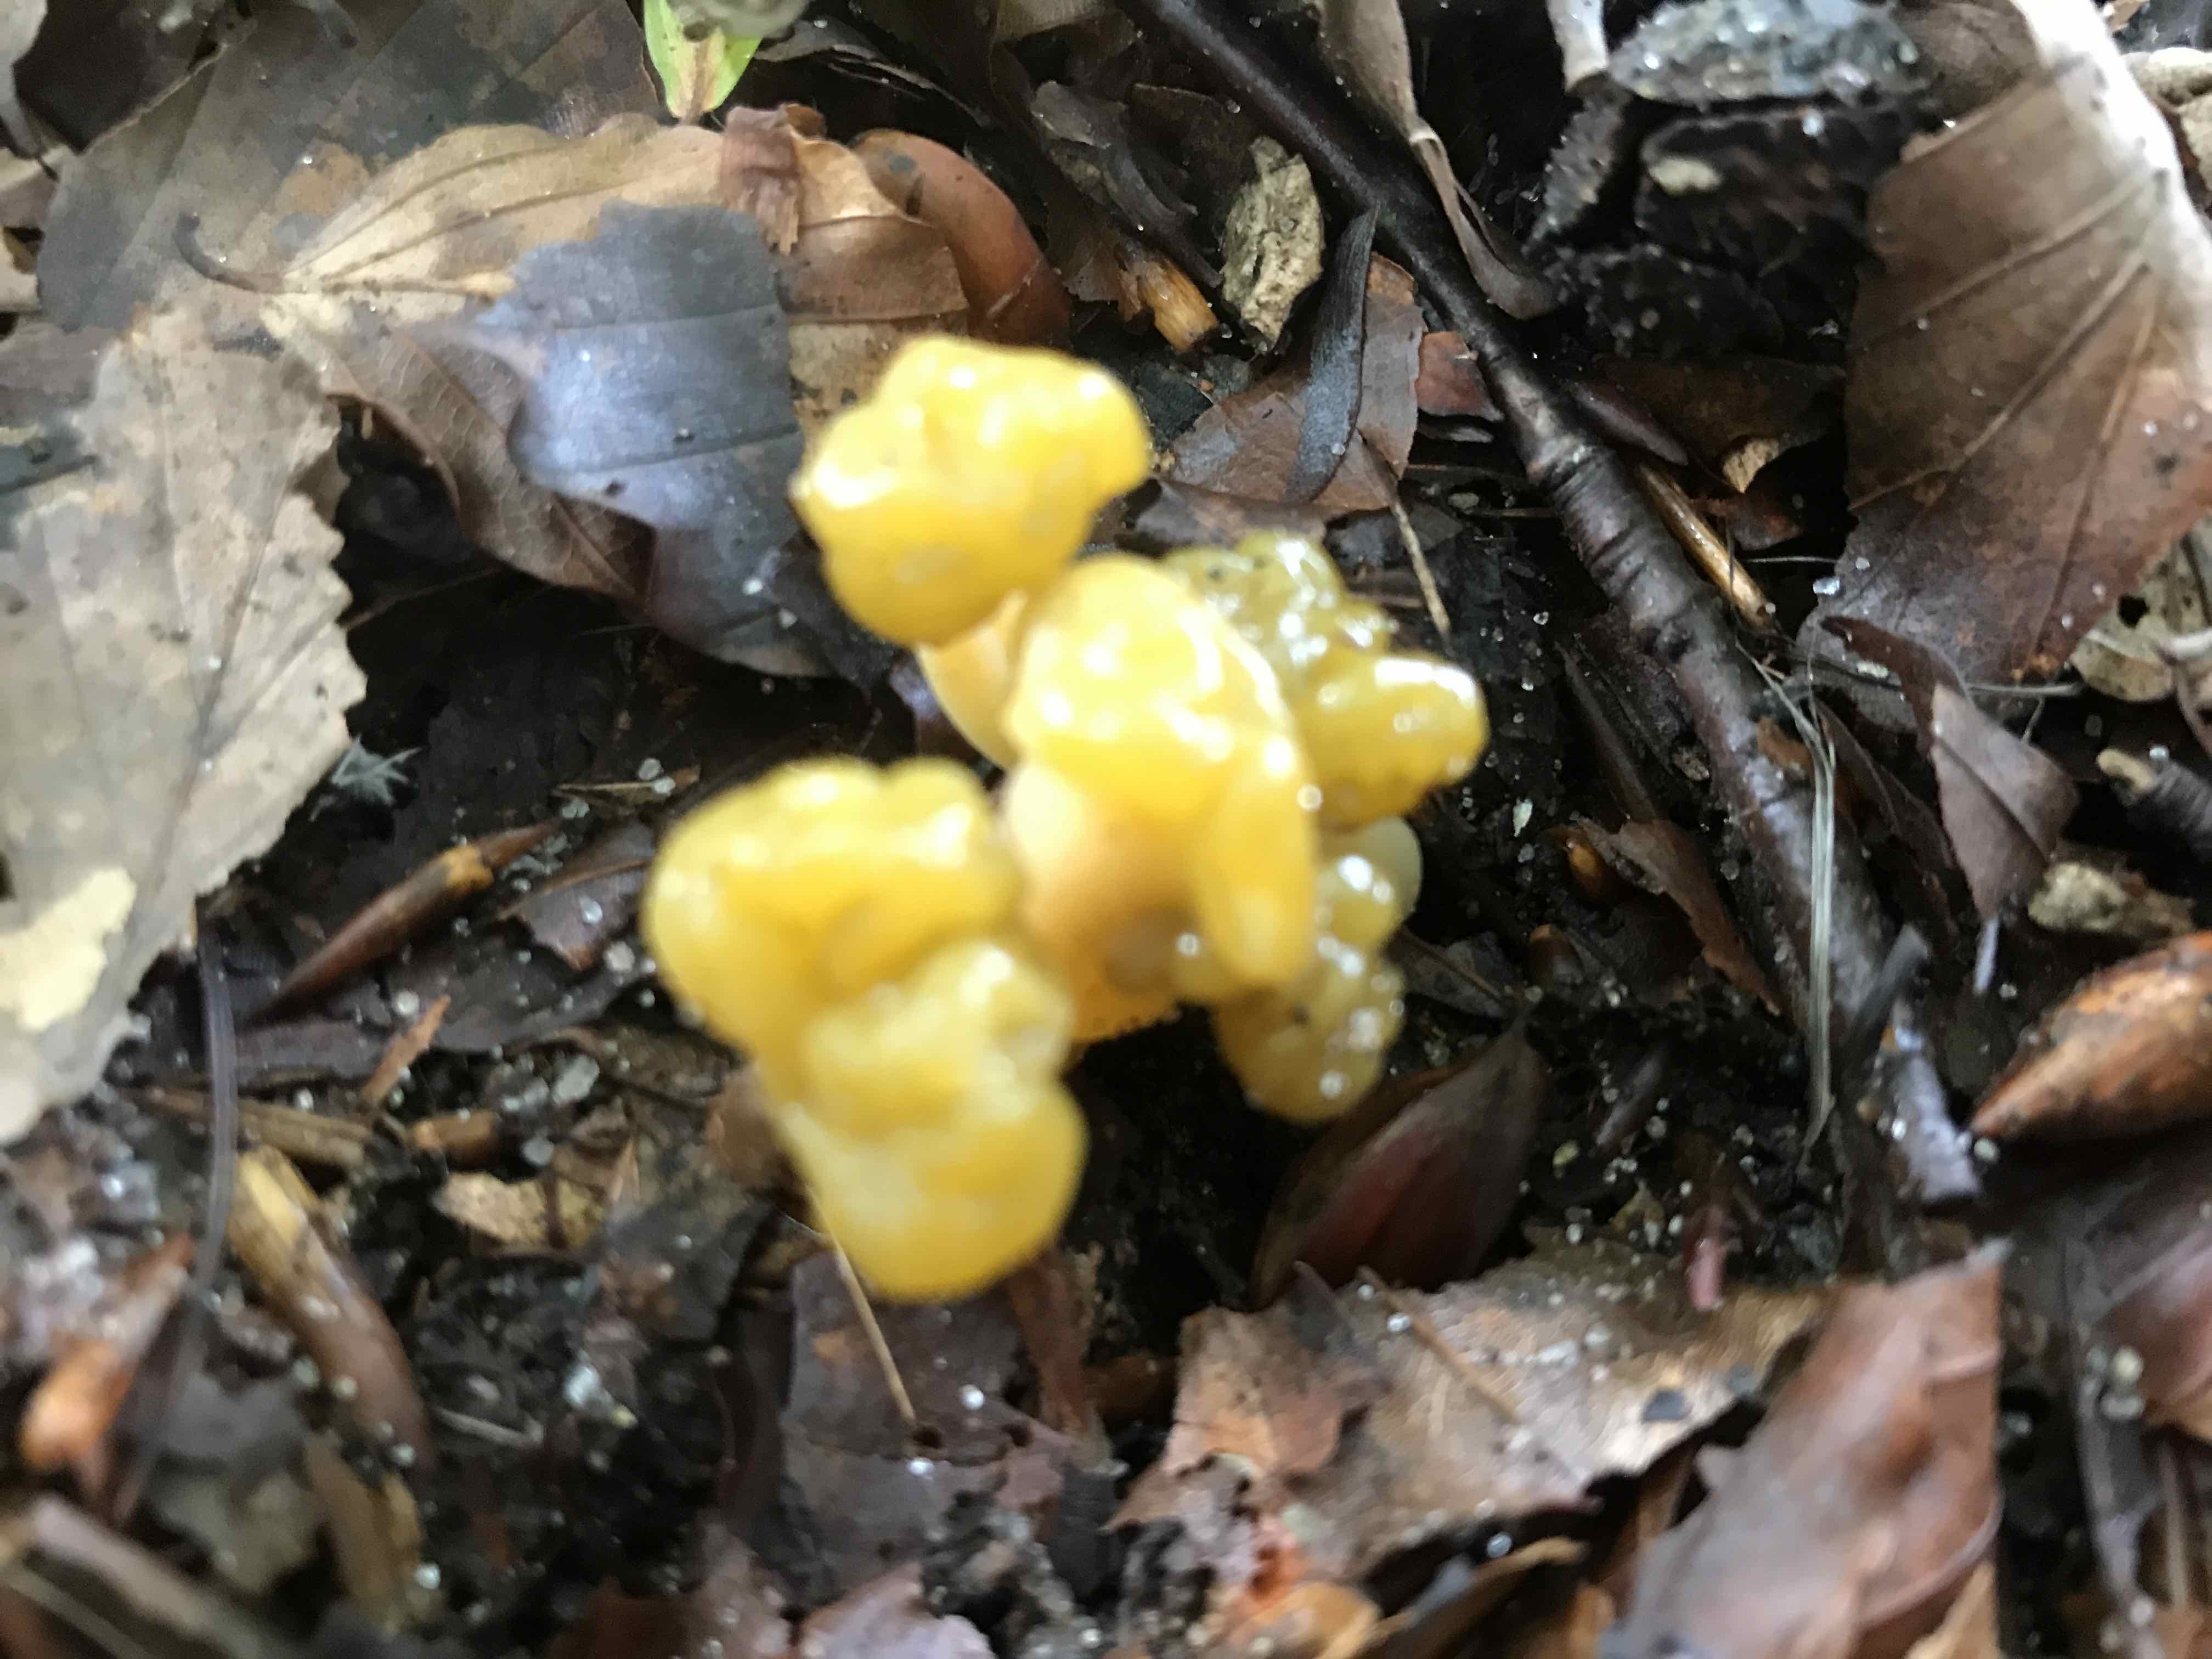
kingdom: Fungi
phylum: Ascomycota
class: Leotiomycetes
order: Leotiales
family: Leotiaceae
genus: Leotia
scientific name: Leotia lubrica
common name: ravsvamp
